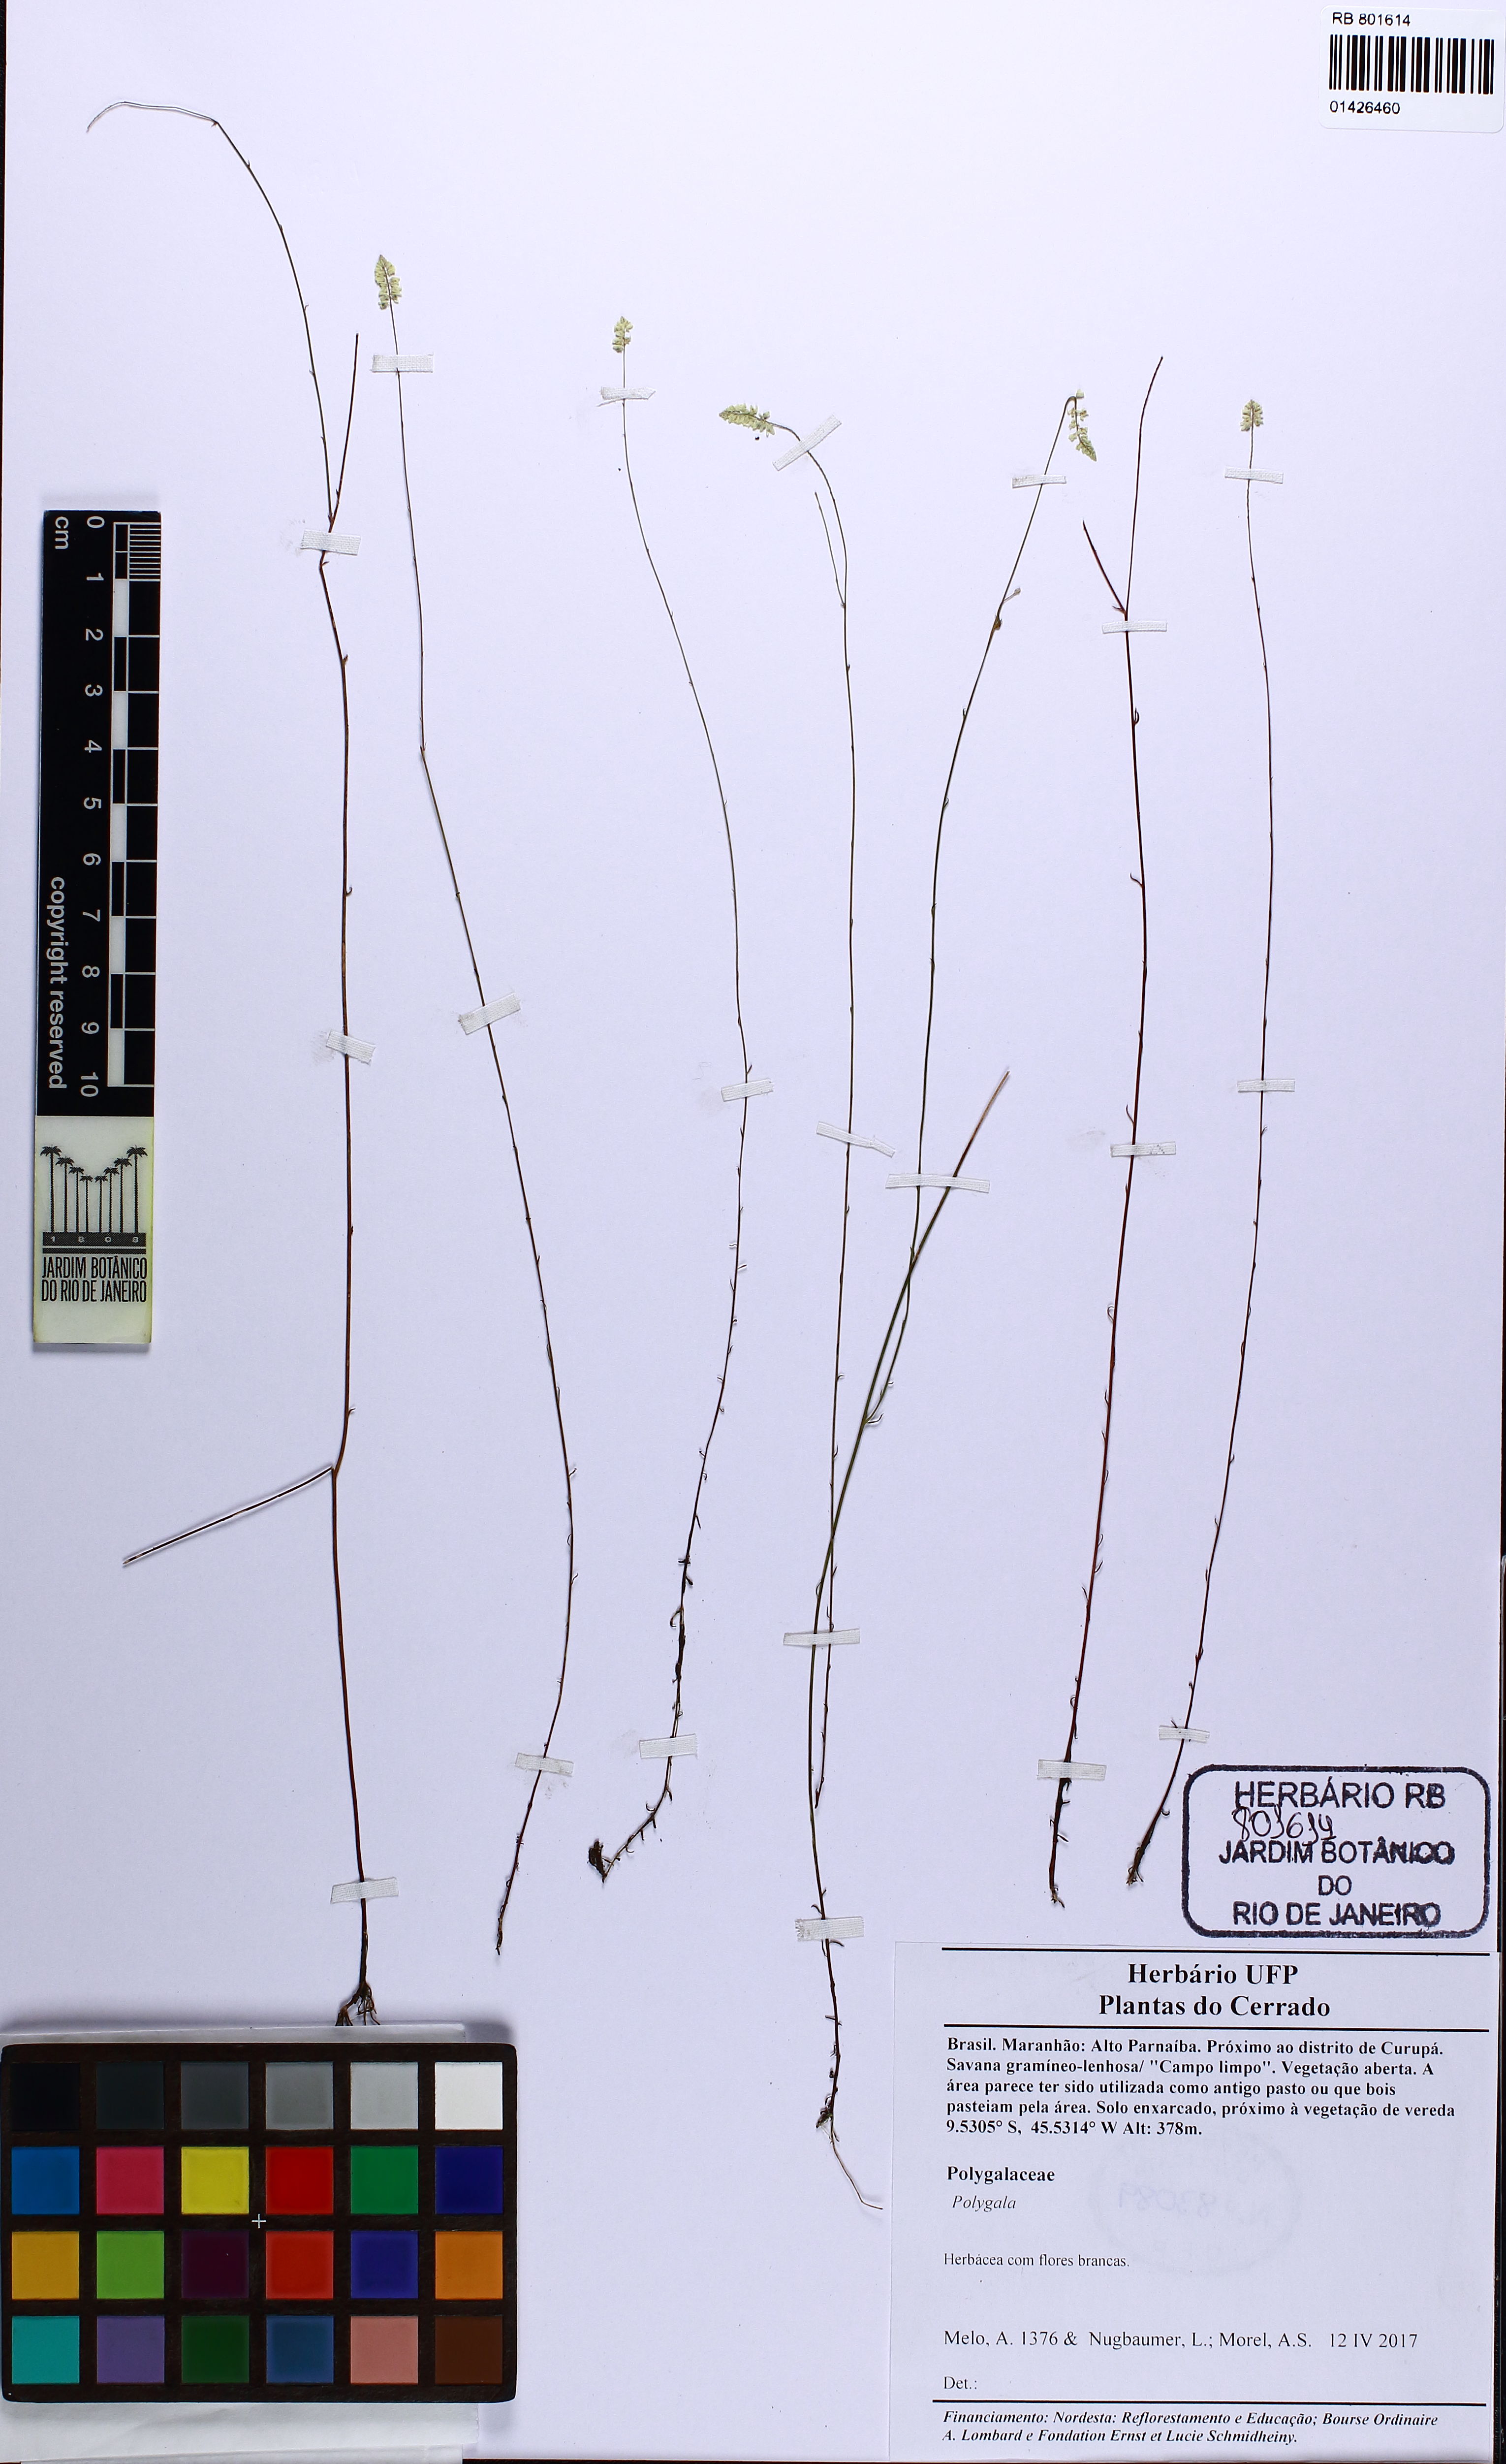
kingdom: Plantae
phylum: Tracheophyta
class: Magnoliopsida
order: Fabales
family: Polygalaceae
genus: Polygala
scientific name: Polygala
